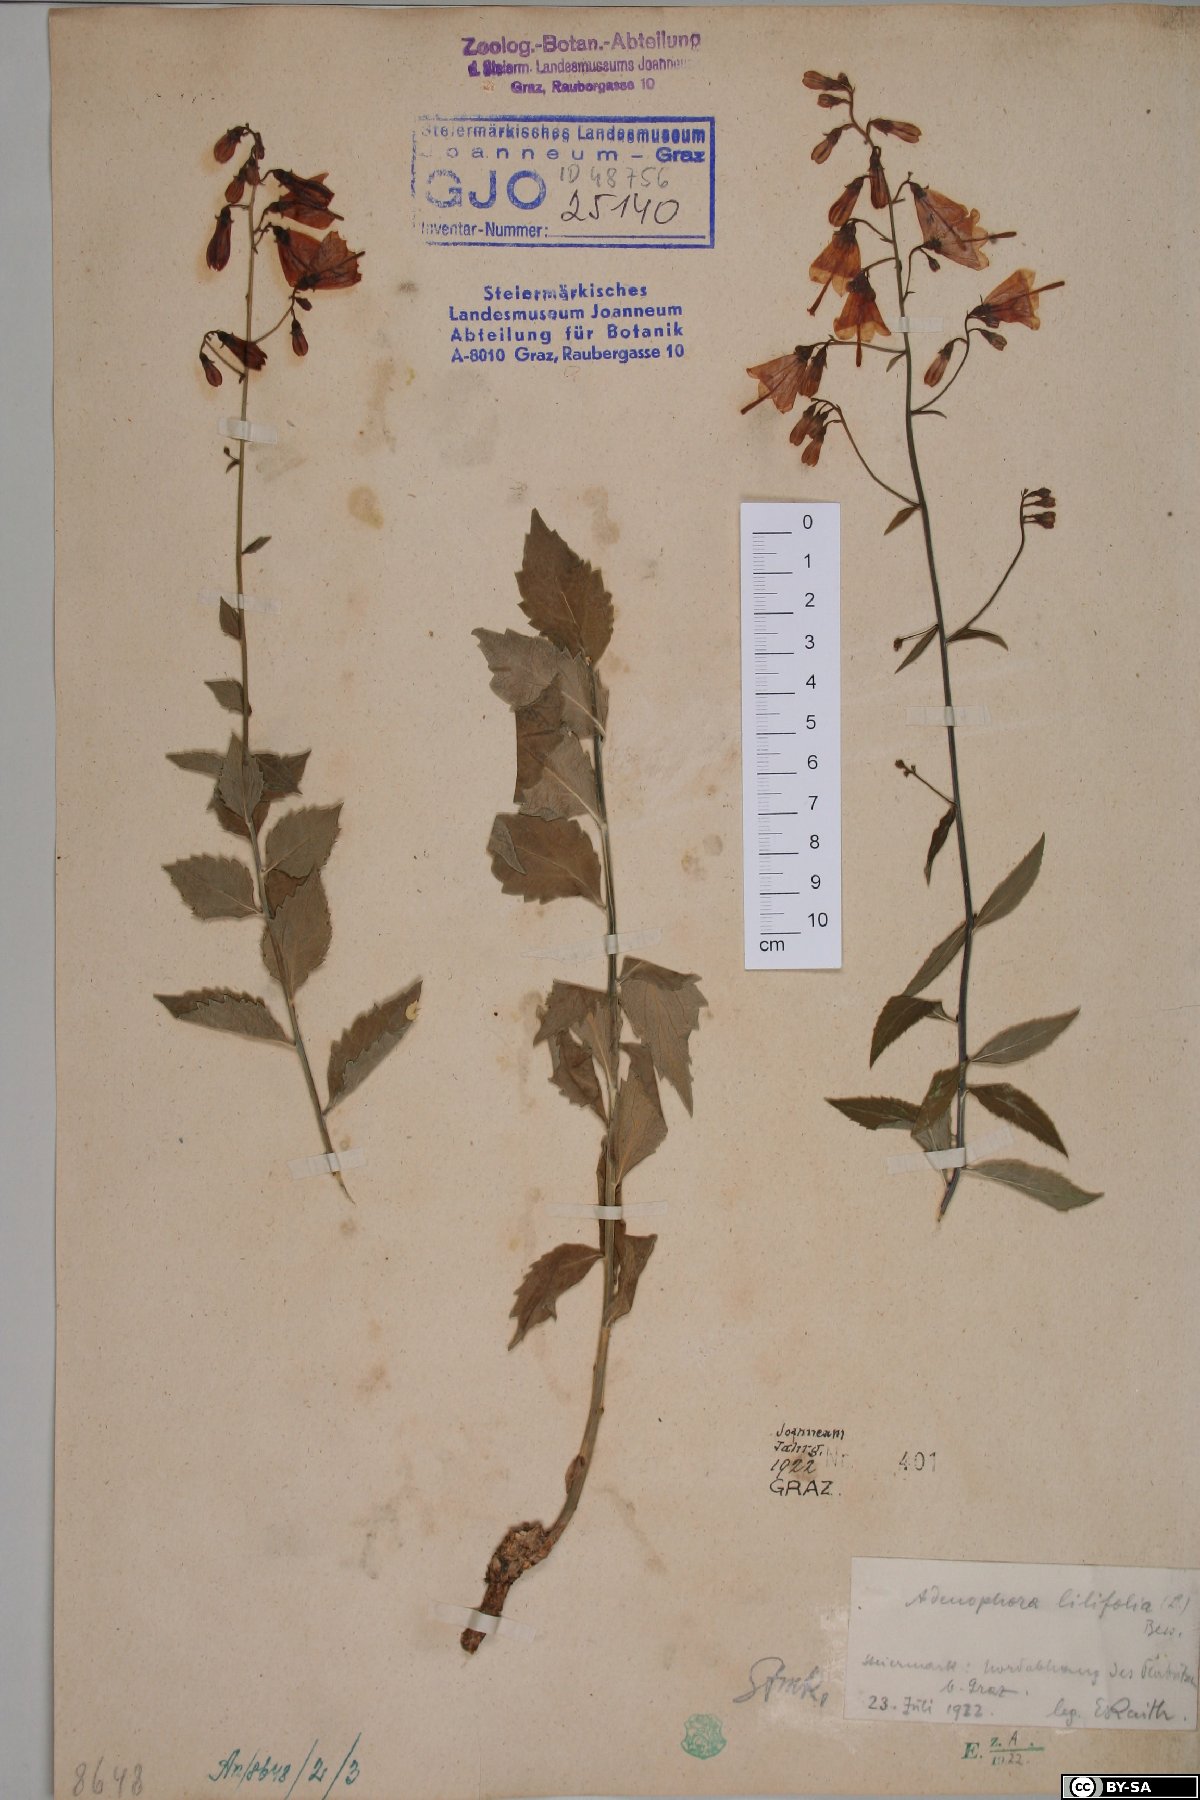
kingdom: Plantae
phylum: Tracheophyta
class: Magnoliopsida
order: Asterales
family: Campanulaceae
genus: Adenophora
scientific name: Adenophora liliifolia
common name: Lilyleaf ladybells
